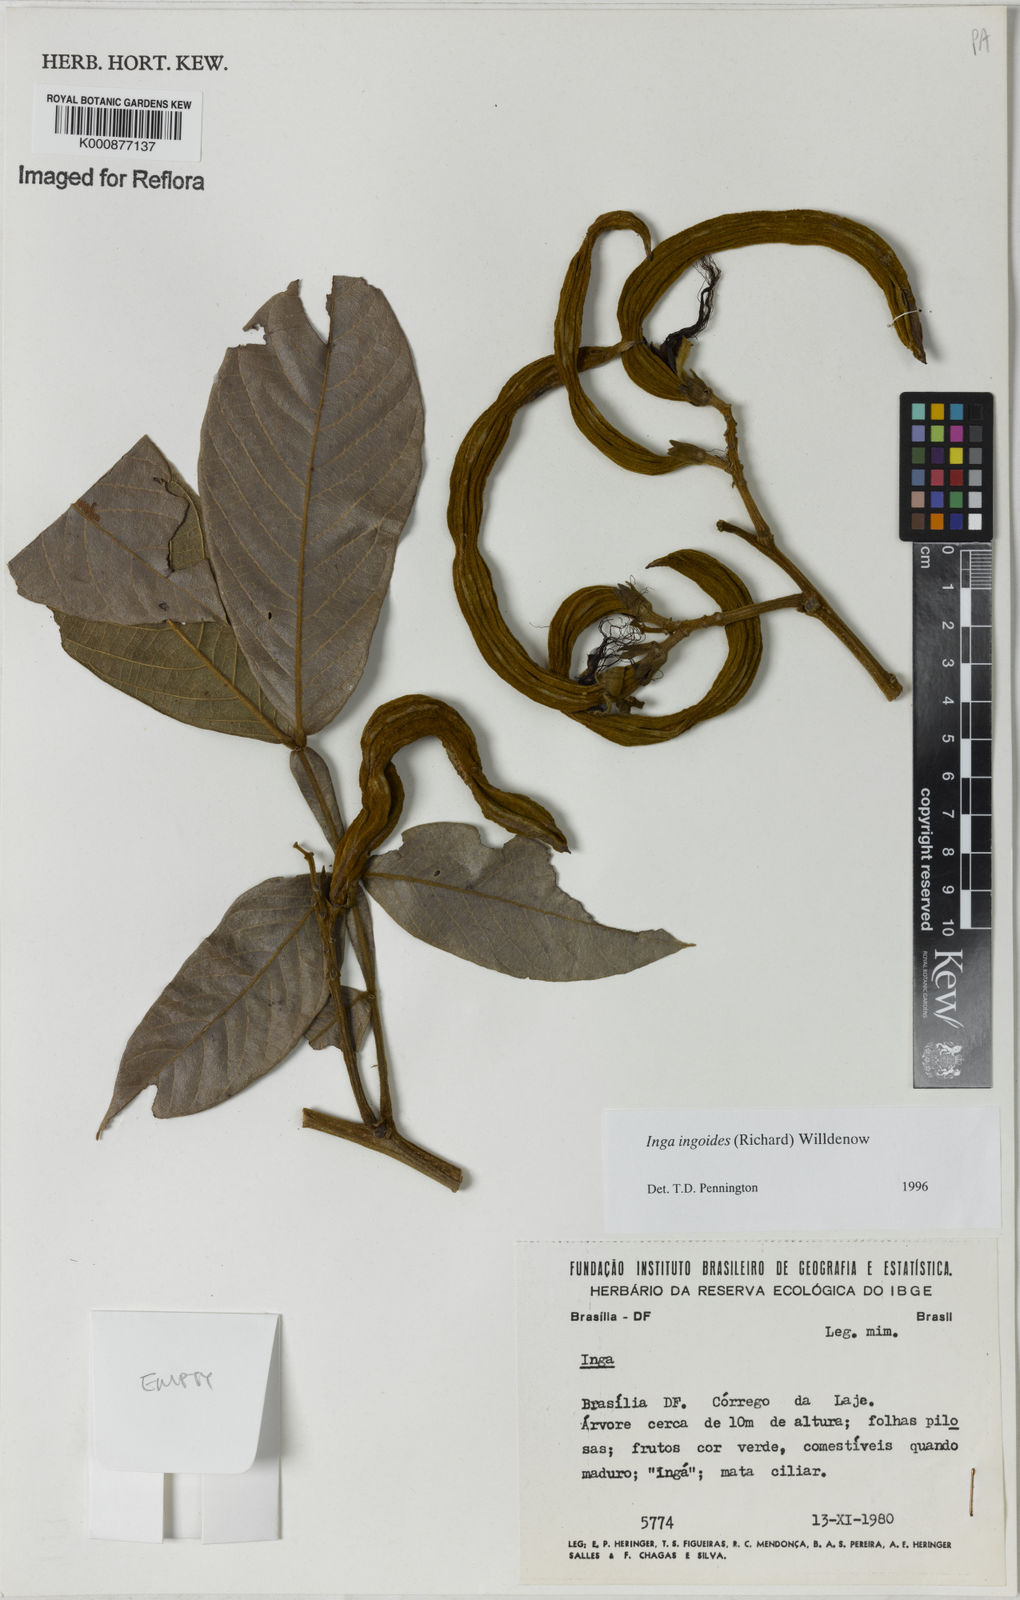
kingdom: Plantae
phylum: Tracheophyta
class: Magnoliopsida
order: Fabales
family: Fabaceae
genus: Inga
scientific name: Inga ingoides
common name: Spanish ash
